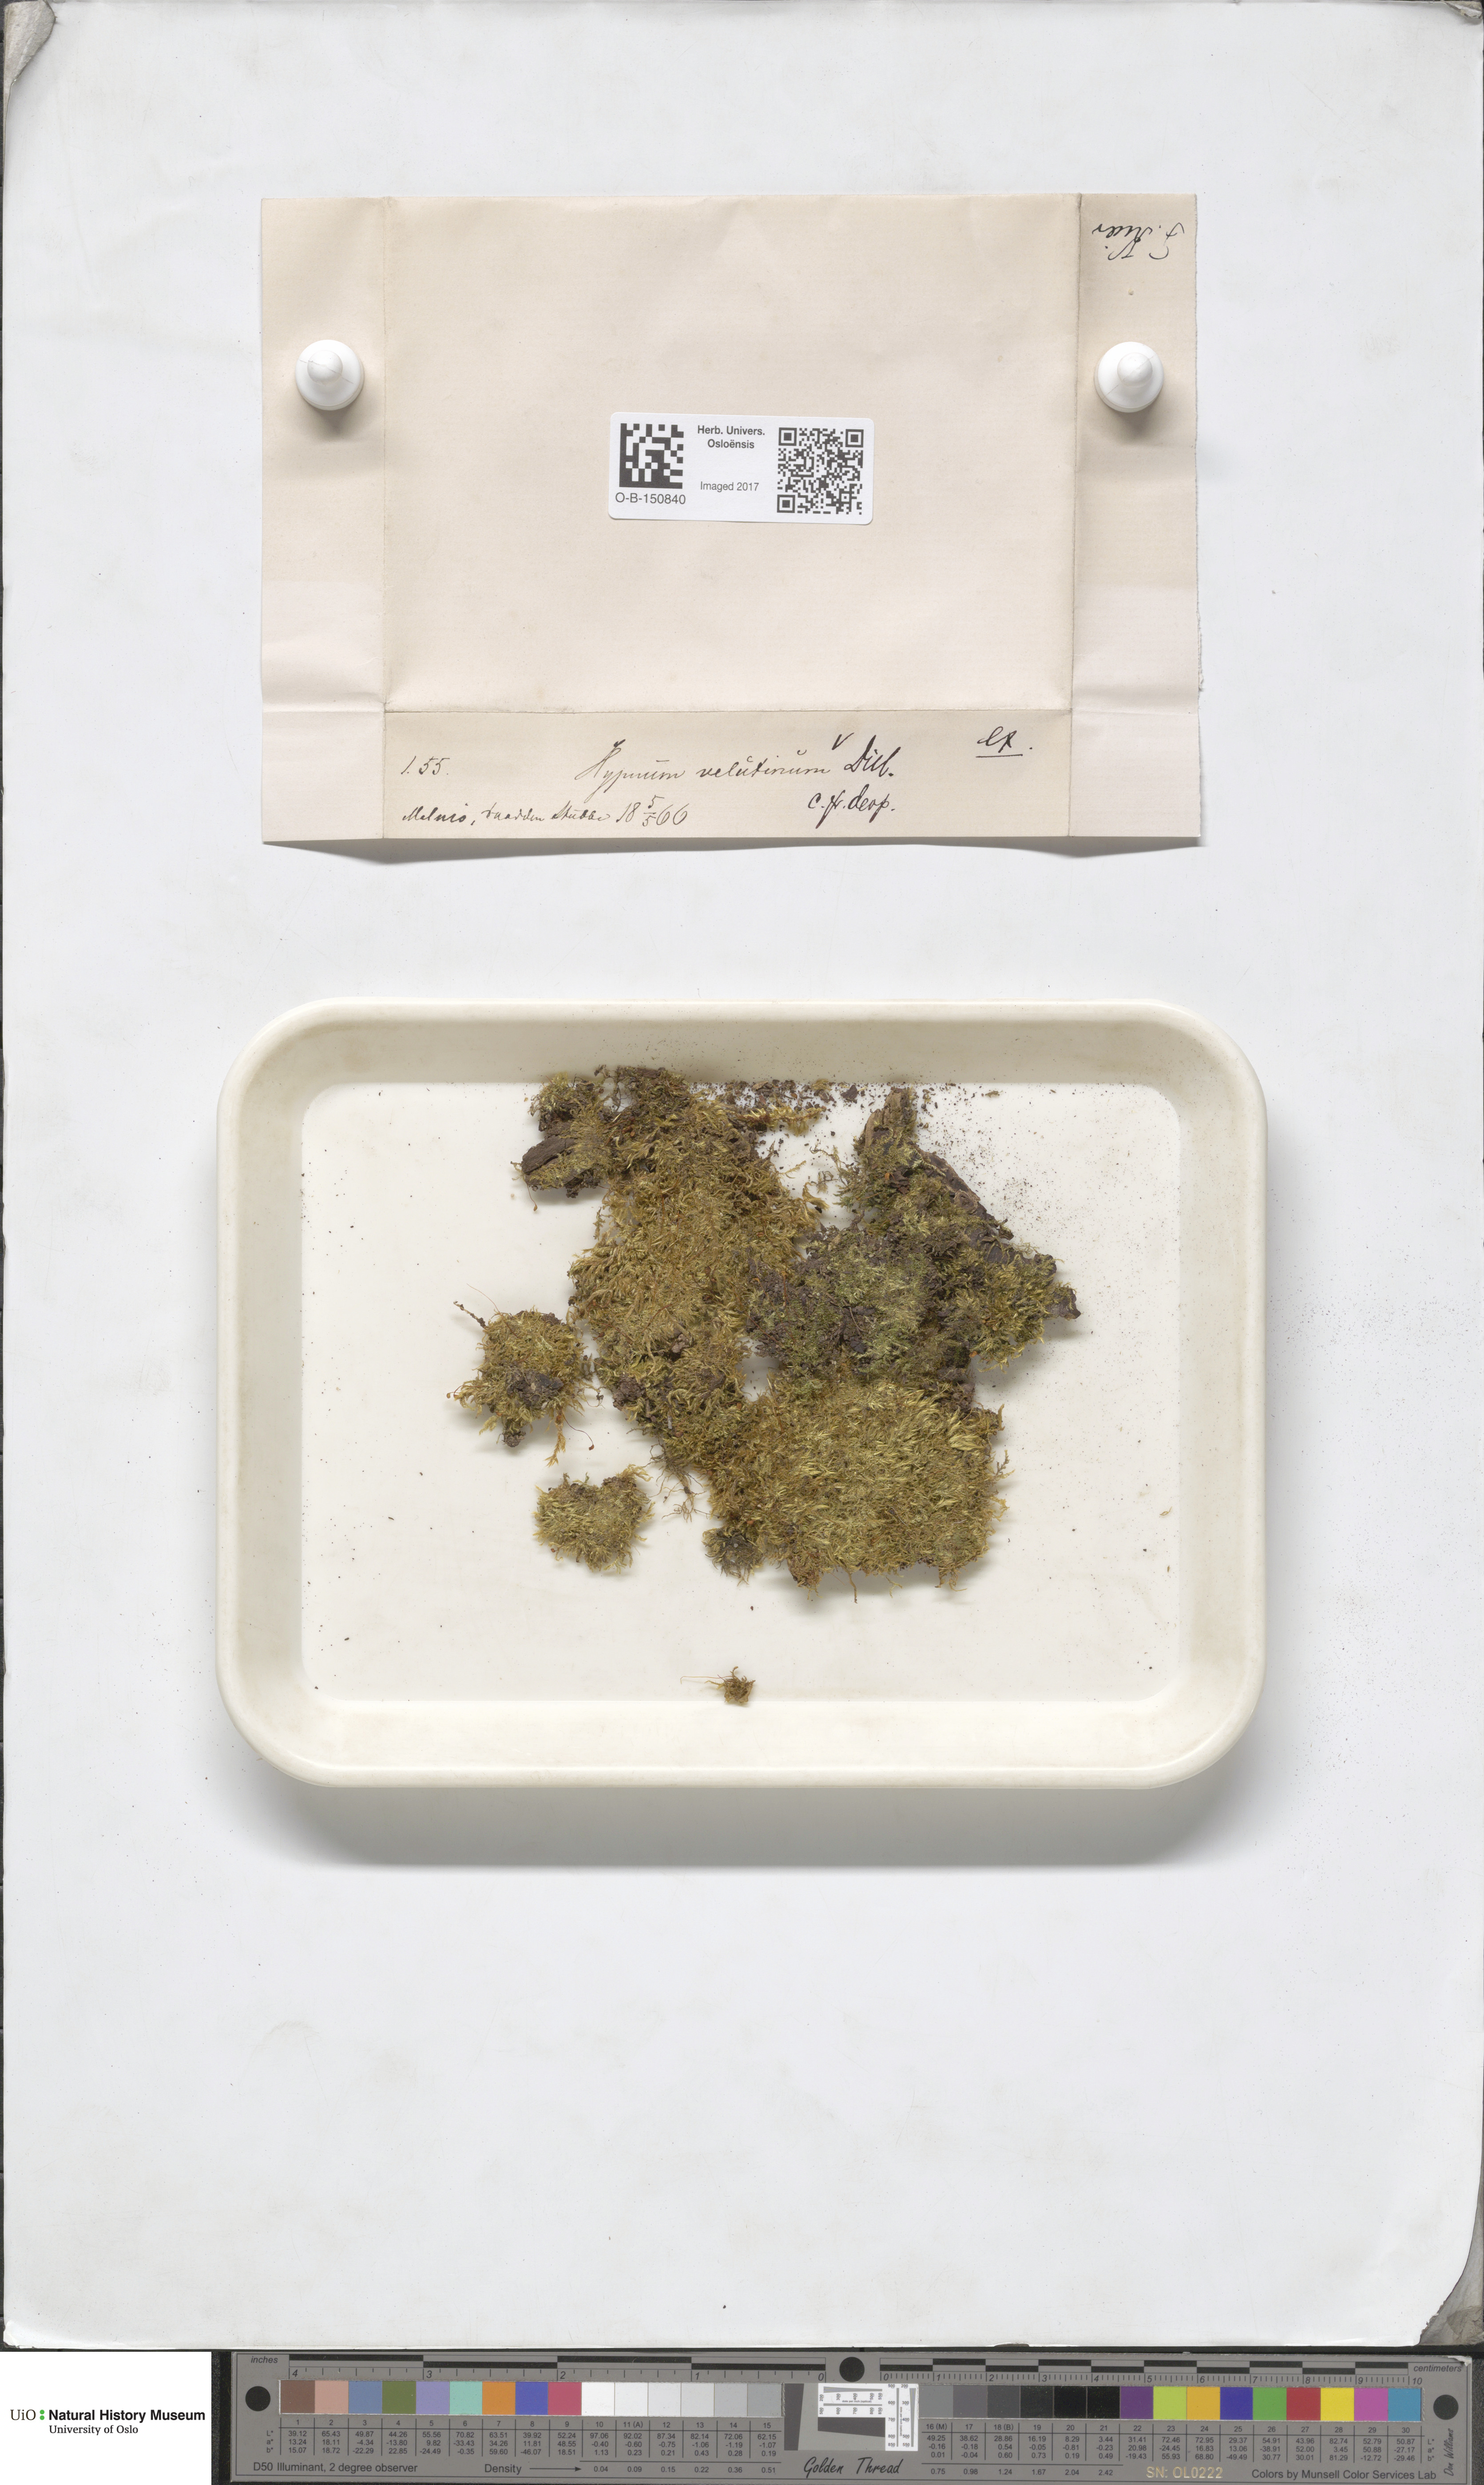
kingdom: Plantae
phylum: Bryophyta
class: Bryopsida
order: Hypnales
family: Brachytheciaceae
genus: Brachytheciastrum
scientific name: Brachytheciastrum velutinum
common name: Velvet feather-moss
